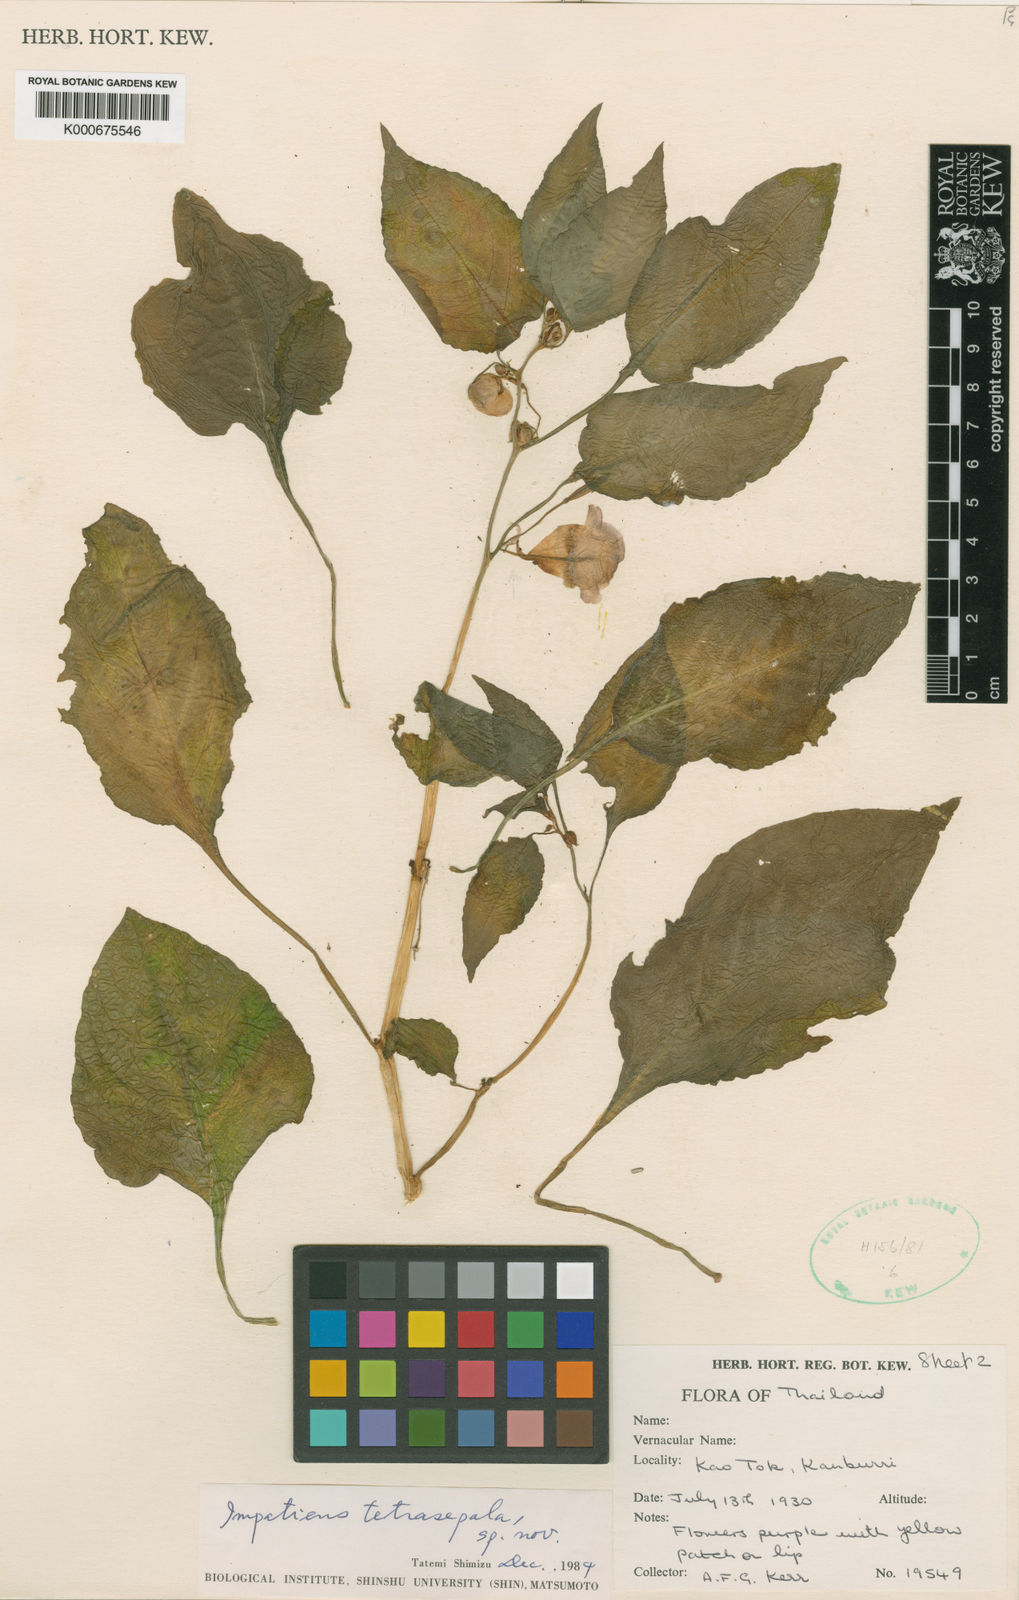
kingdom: Plantae
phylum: Tracheophyta
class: Magnoliopsida
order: Ericales
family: Balsaminaceae
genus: Impatiens
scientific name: Impatiens
